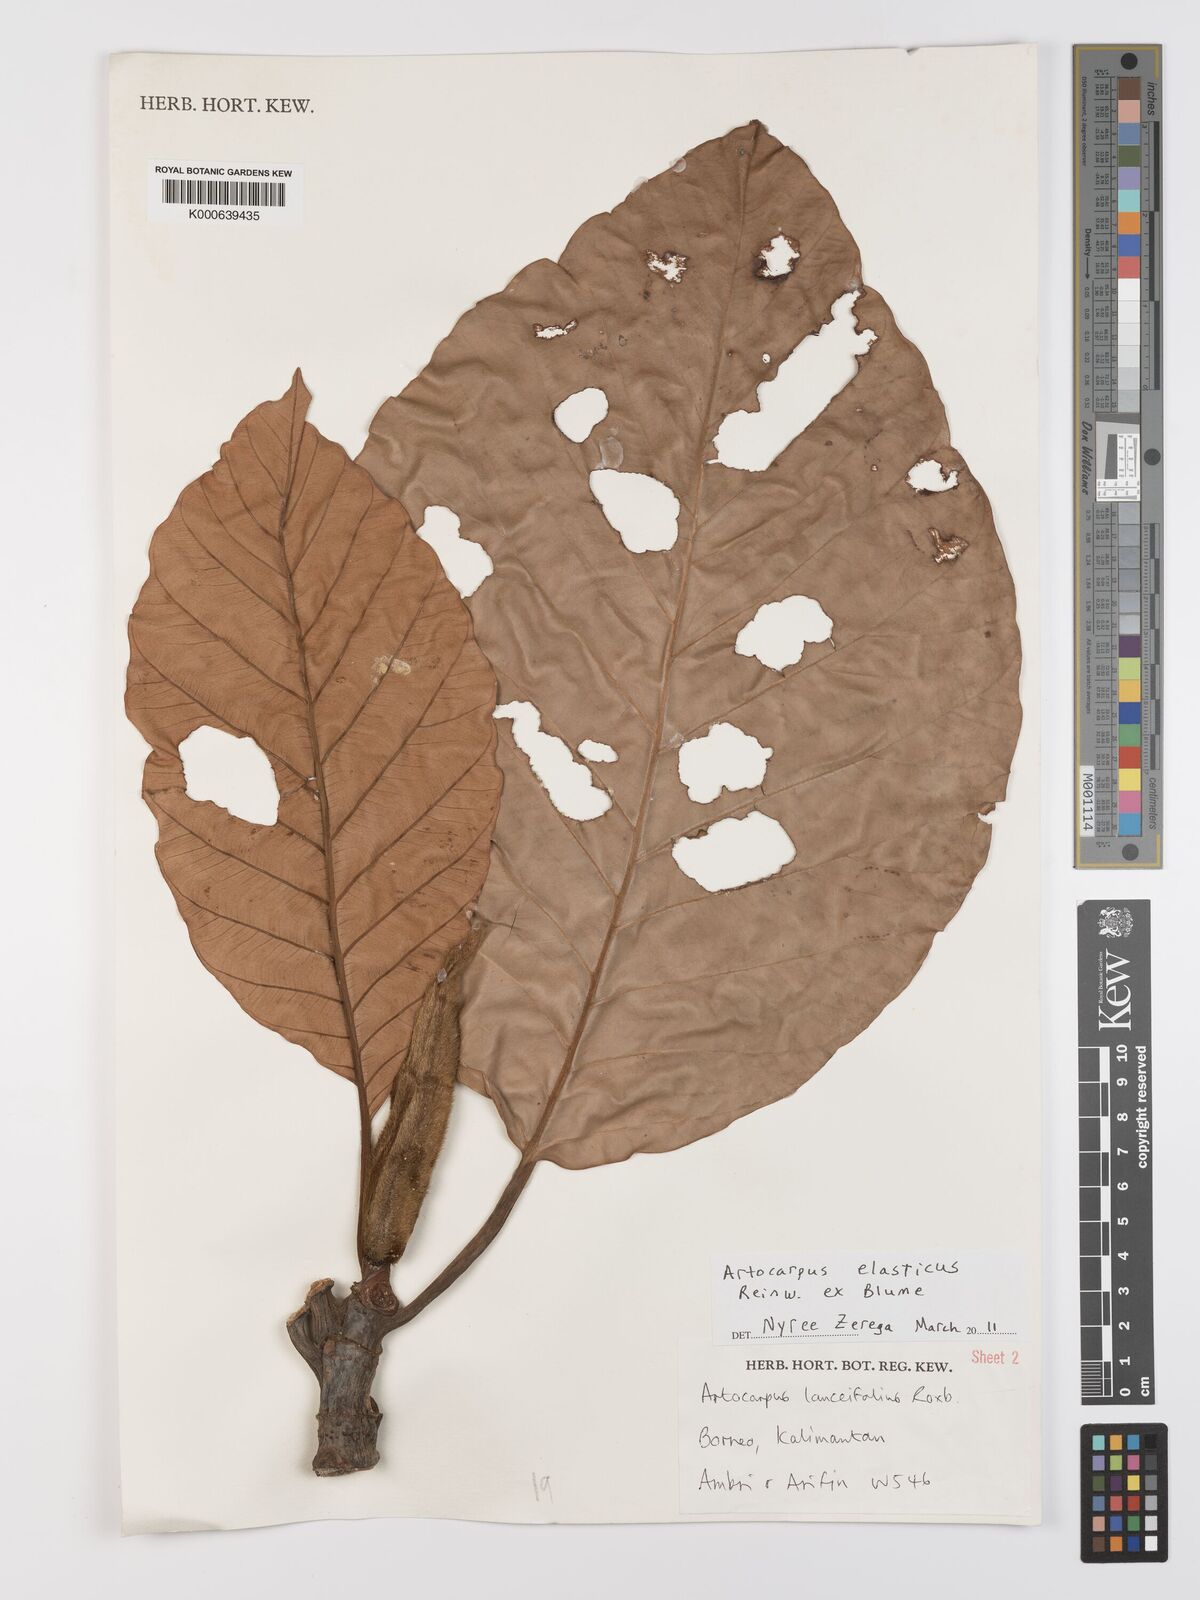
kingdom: Plantae
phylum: Tracheophyta
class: Magnoliopsida
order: Rosales
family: Moraceae
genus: Artocarpus
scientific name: Artocarpus elasticus
